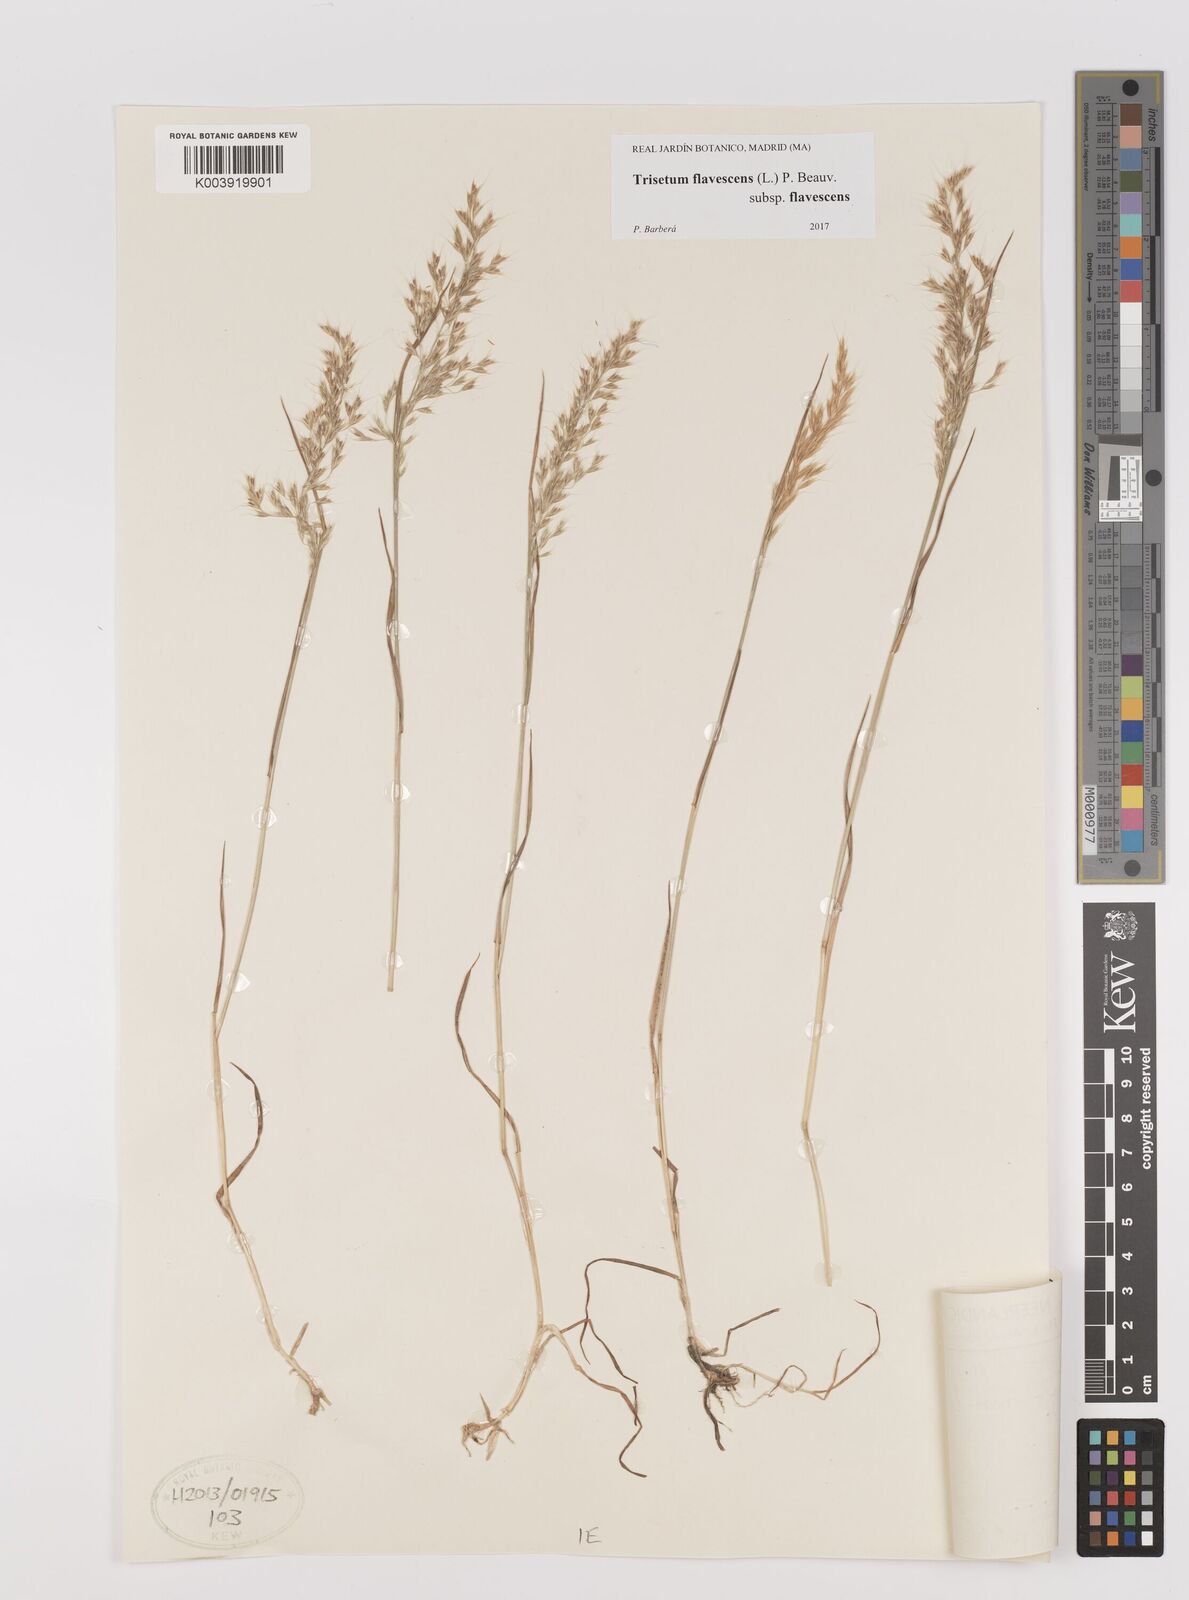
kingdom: Plantae
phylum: Tracheophyta
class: Liliopsida
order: Poales
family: Poaceae
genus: Trisetum
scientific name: Trisetum flavescens
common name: Yellow oat-grass
